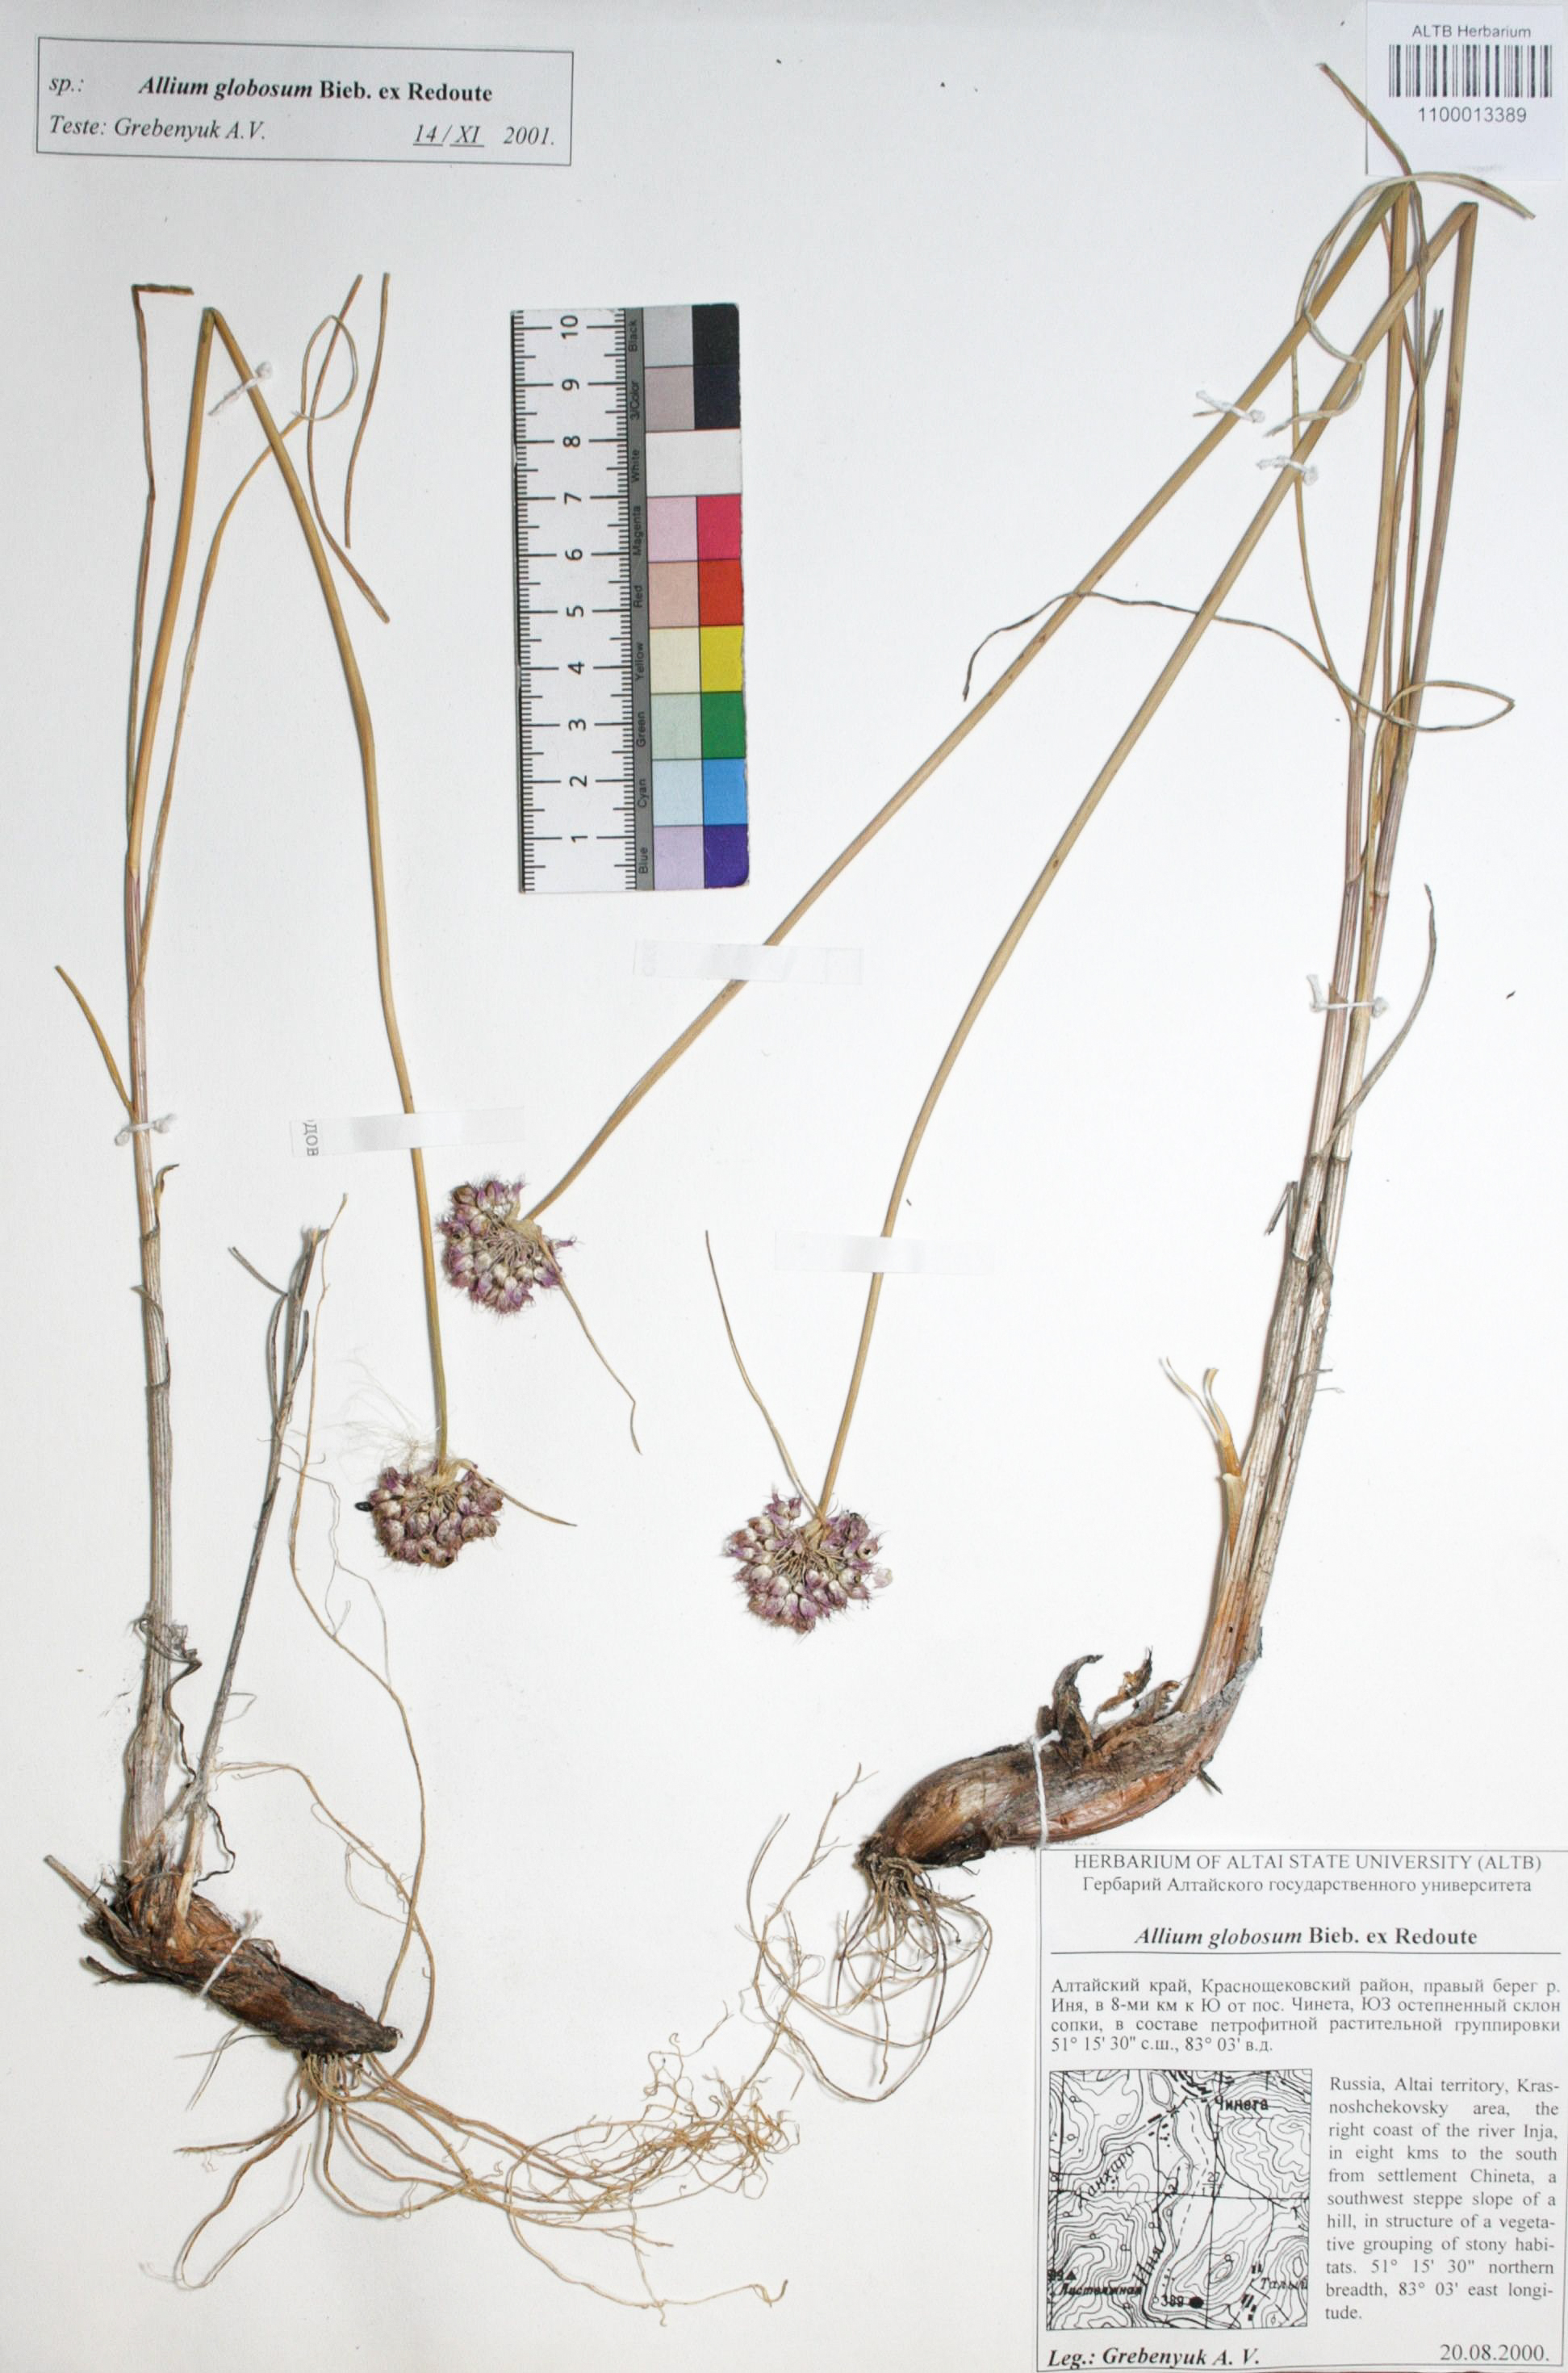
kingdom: Plantae
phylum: Tracheophyta
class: Liliopsida
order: Asparagales
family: Amaryllidaceae
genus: Allium
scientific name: Allium saxatile
